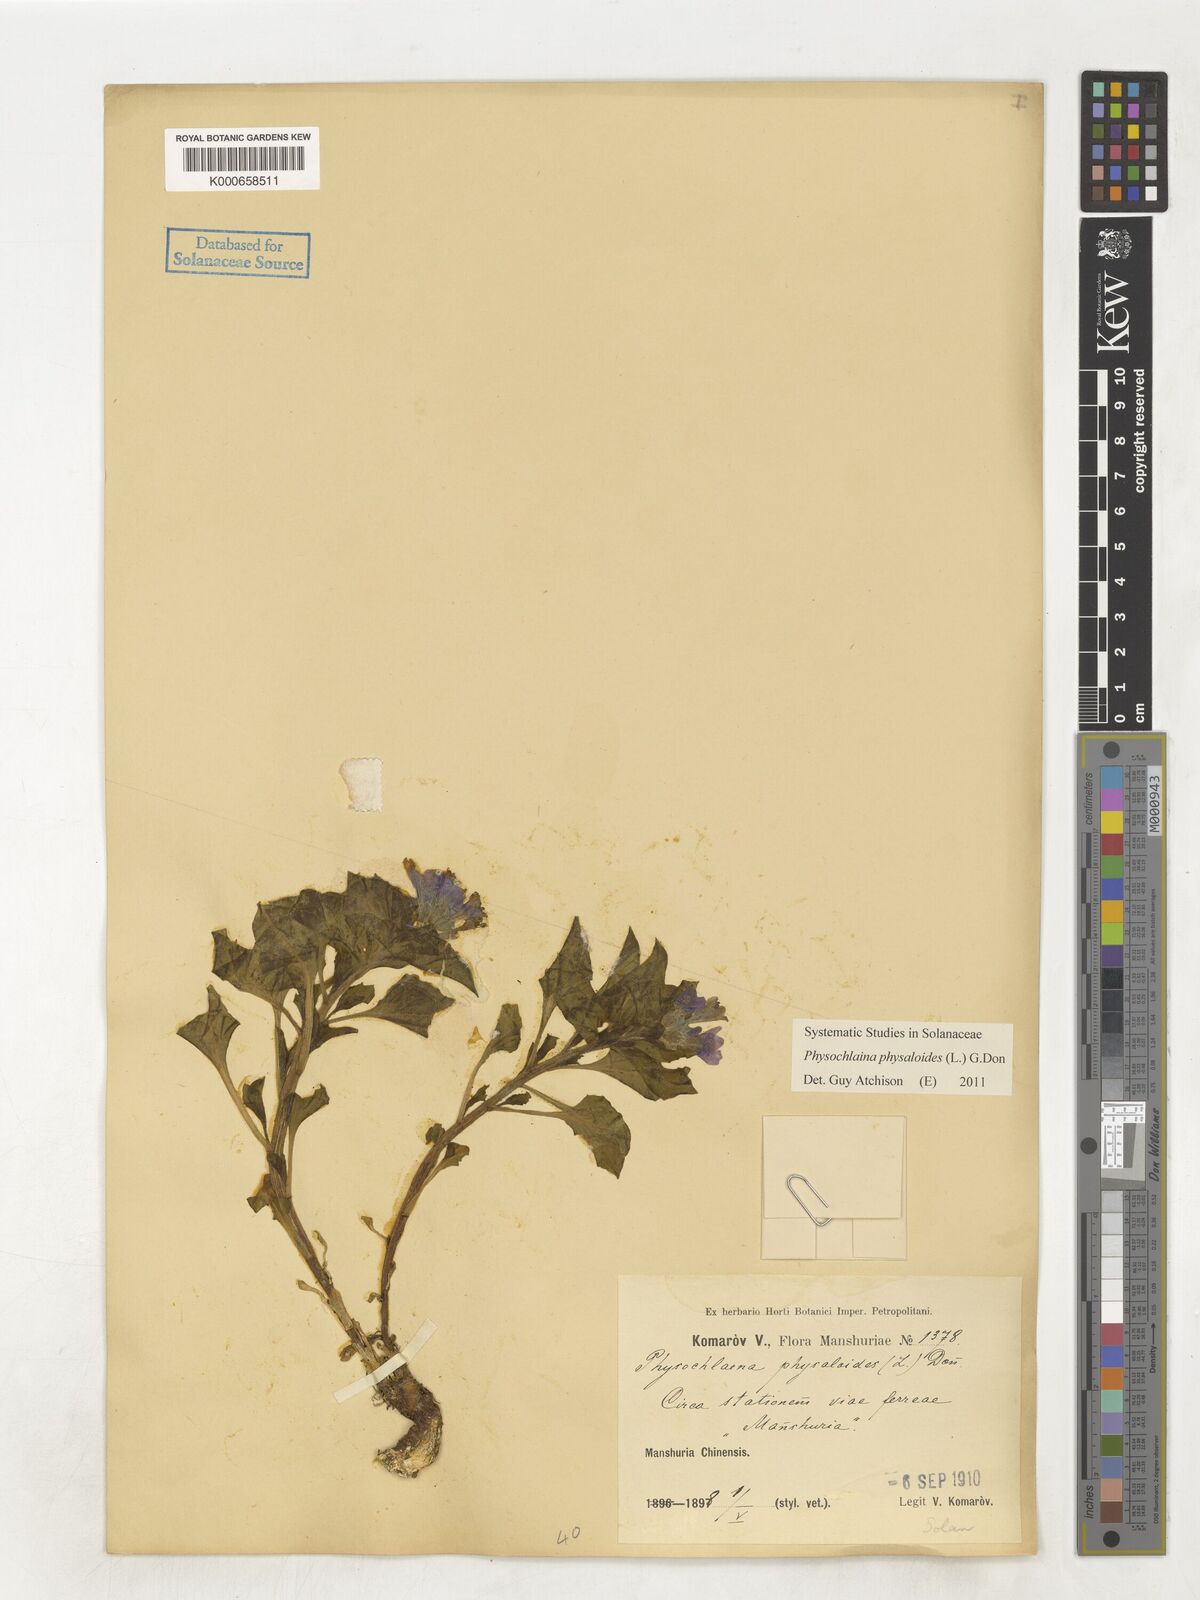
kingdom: Plantae
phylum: Tracheophyta
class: Magnoliopsida
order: Solanales
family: Solanaceae
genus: Physochlaina
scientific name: Physochlaina physaloides
